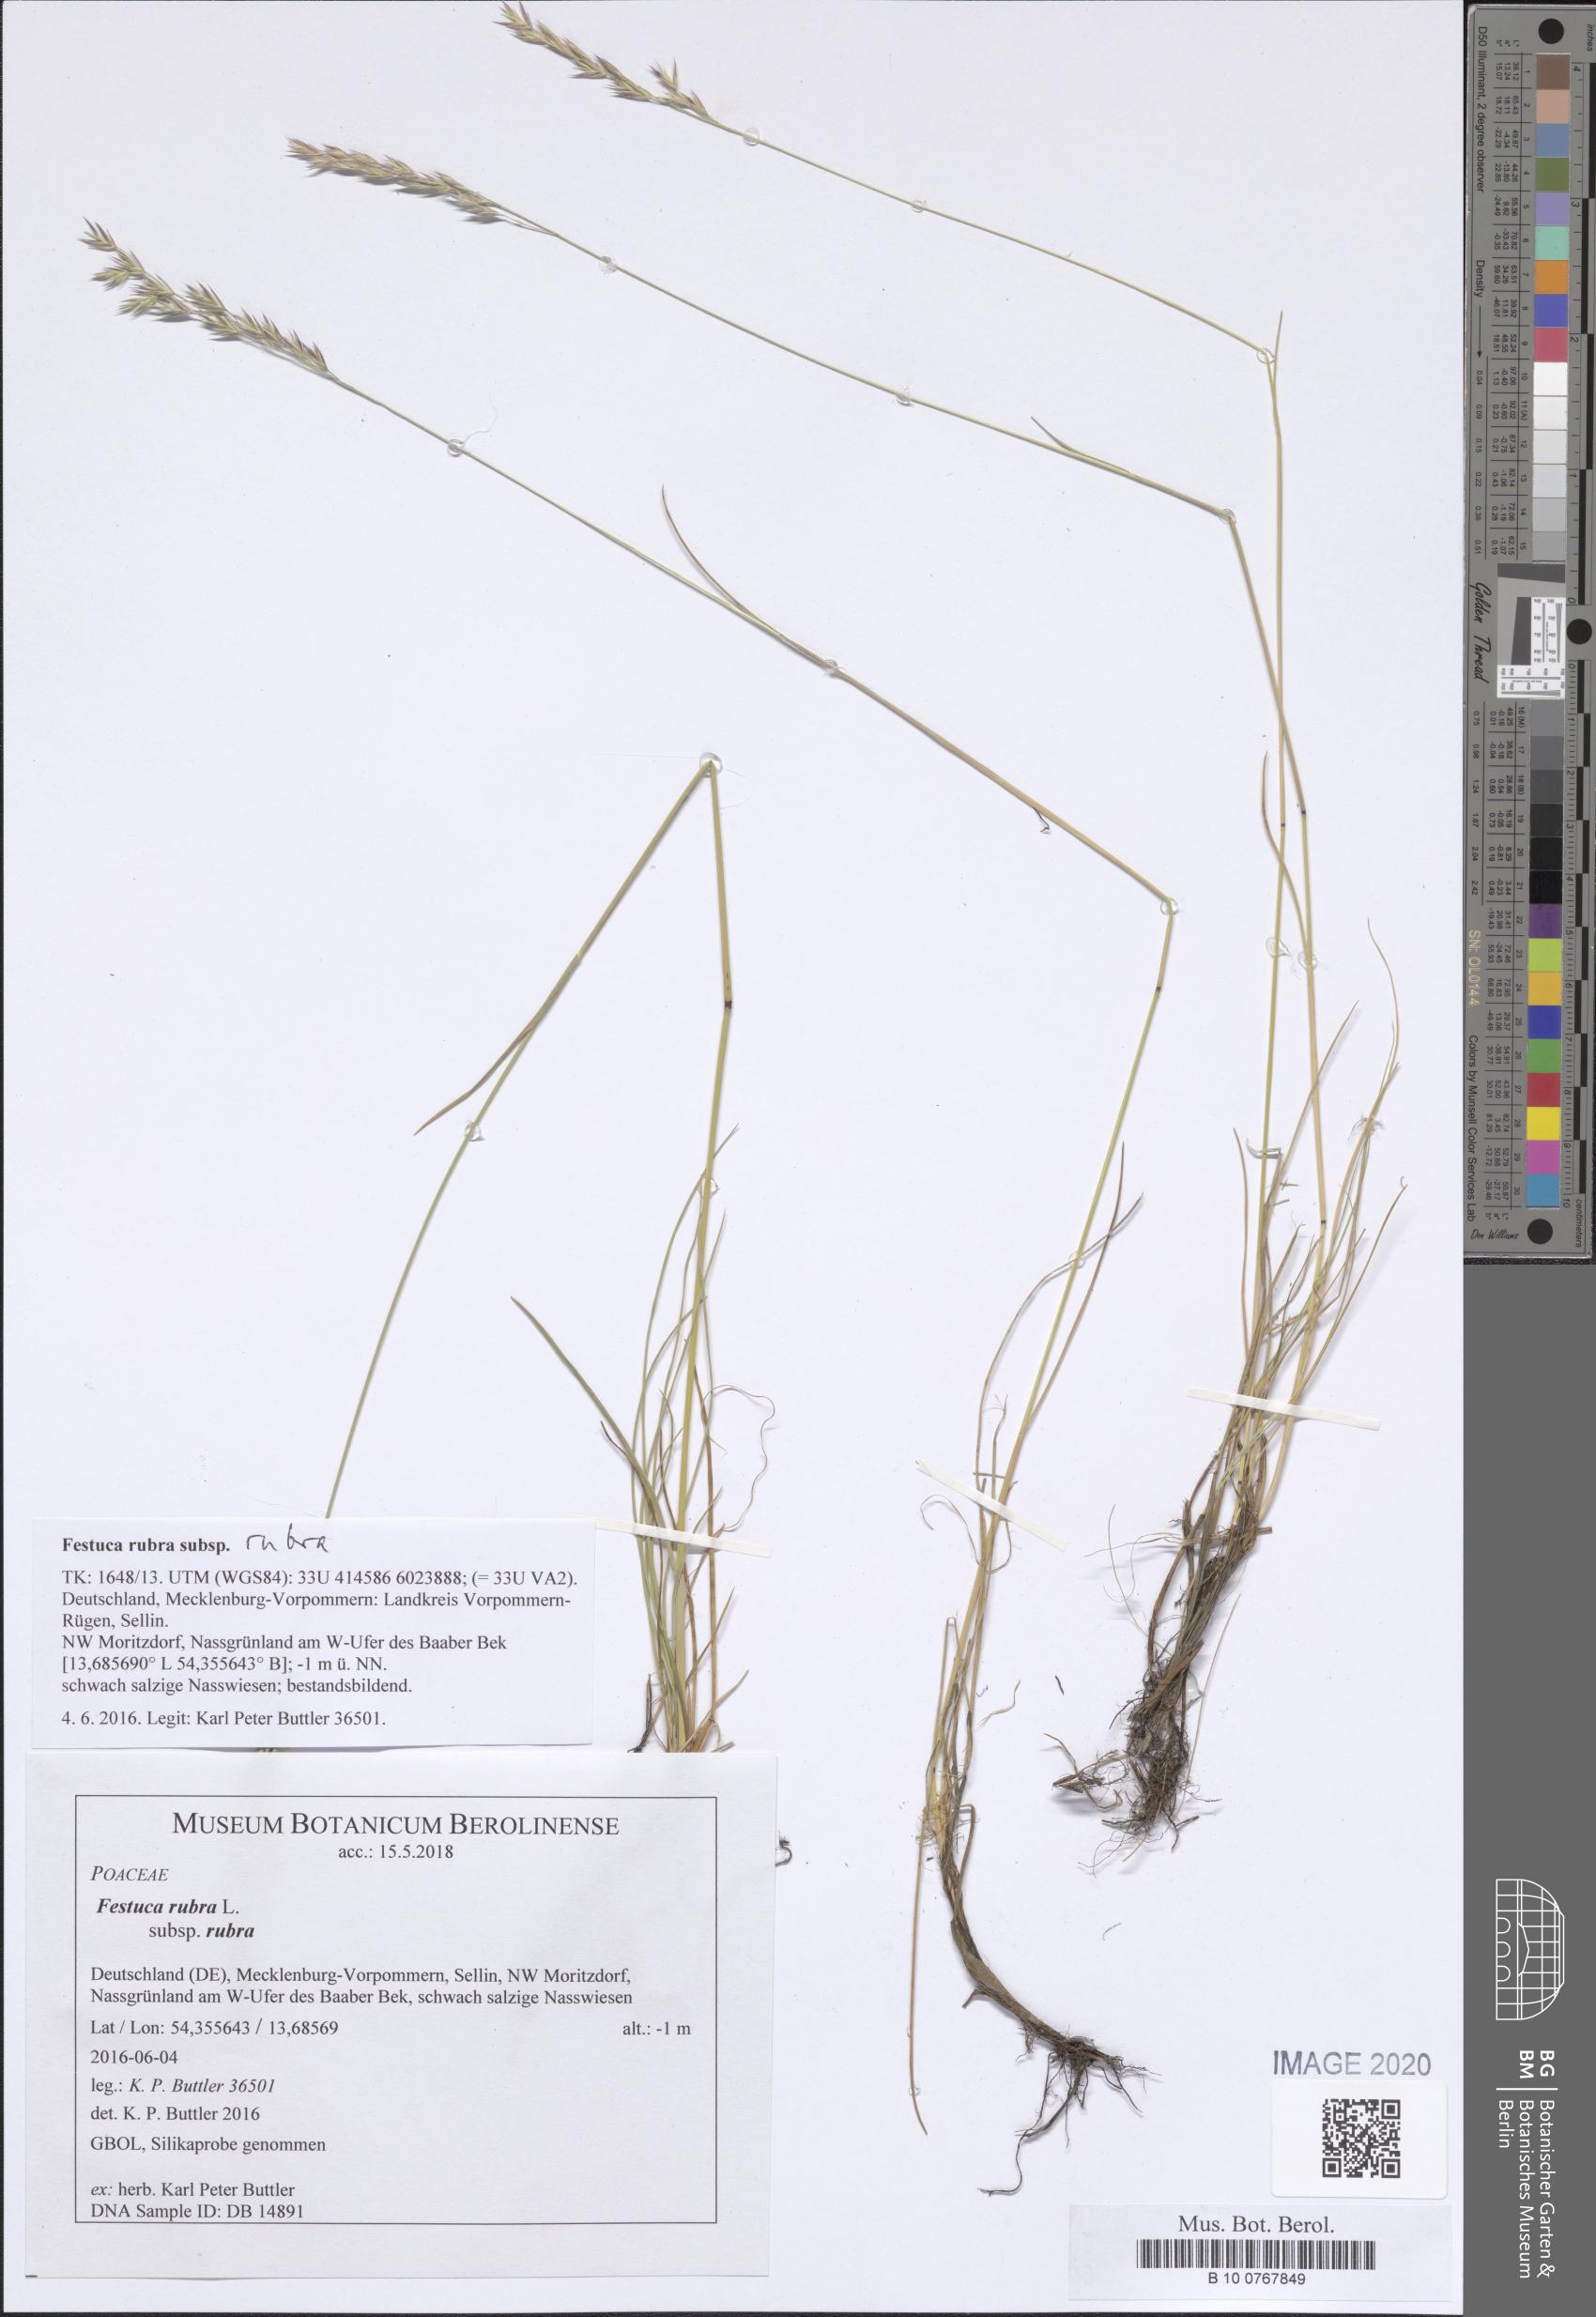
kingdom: Plantae
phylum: Tracheophyta
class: Liliopsida
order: Poales
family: Poaceae
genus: Festuca
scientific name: Festuca rubra
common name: Red fescue
